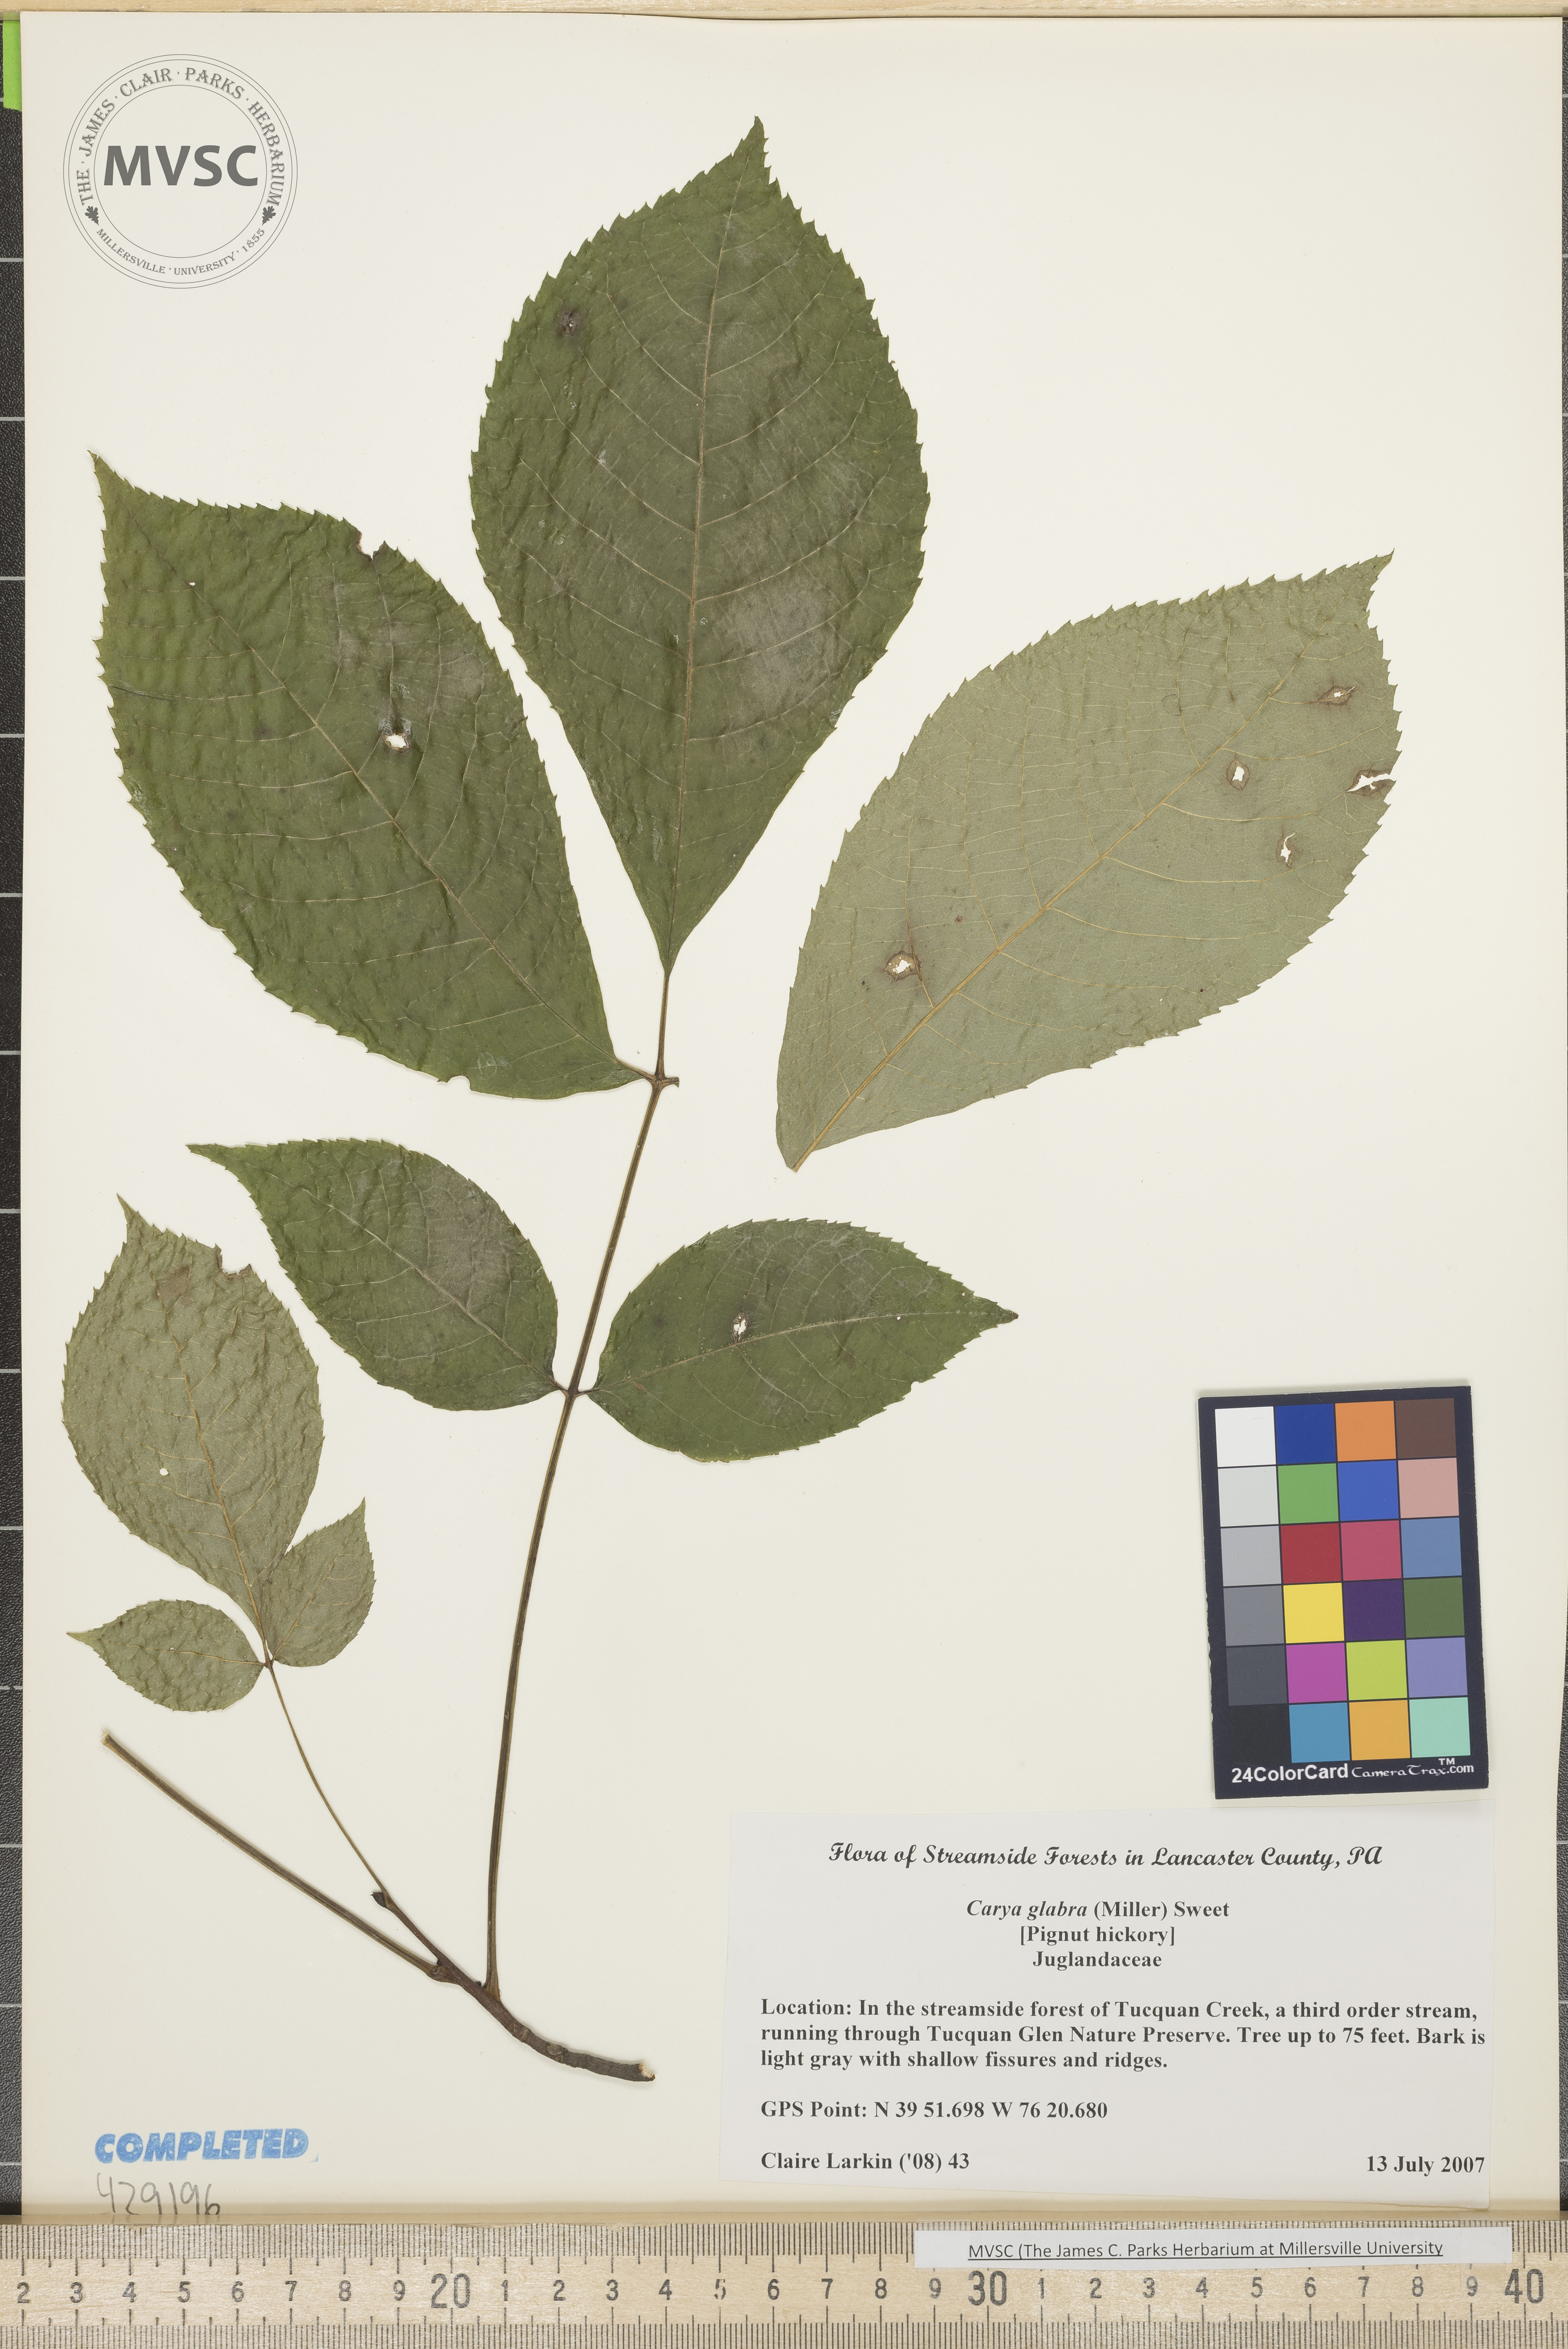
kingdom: Plantae
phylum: Tracheophyta
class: Magnoliopsida
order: Fagales
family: Juglandaceae
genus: Carya
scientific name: Carya glabra
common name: Pignut hickory
